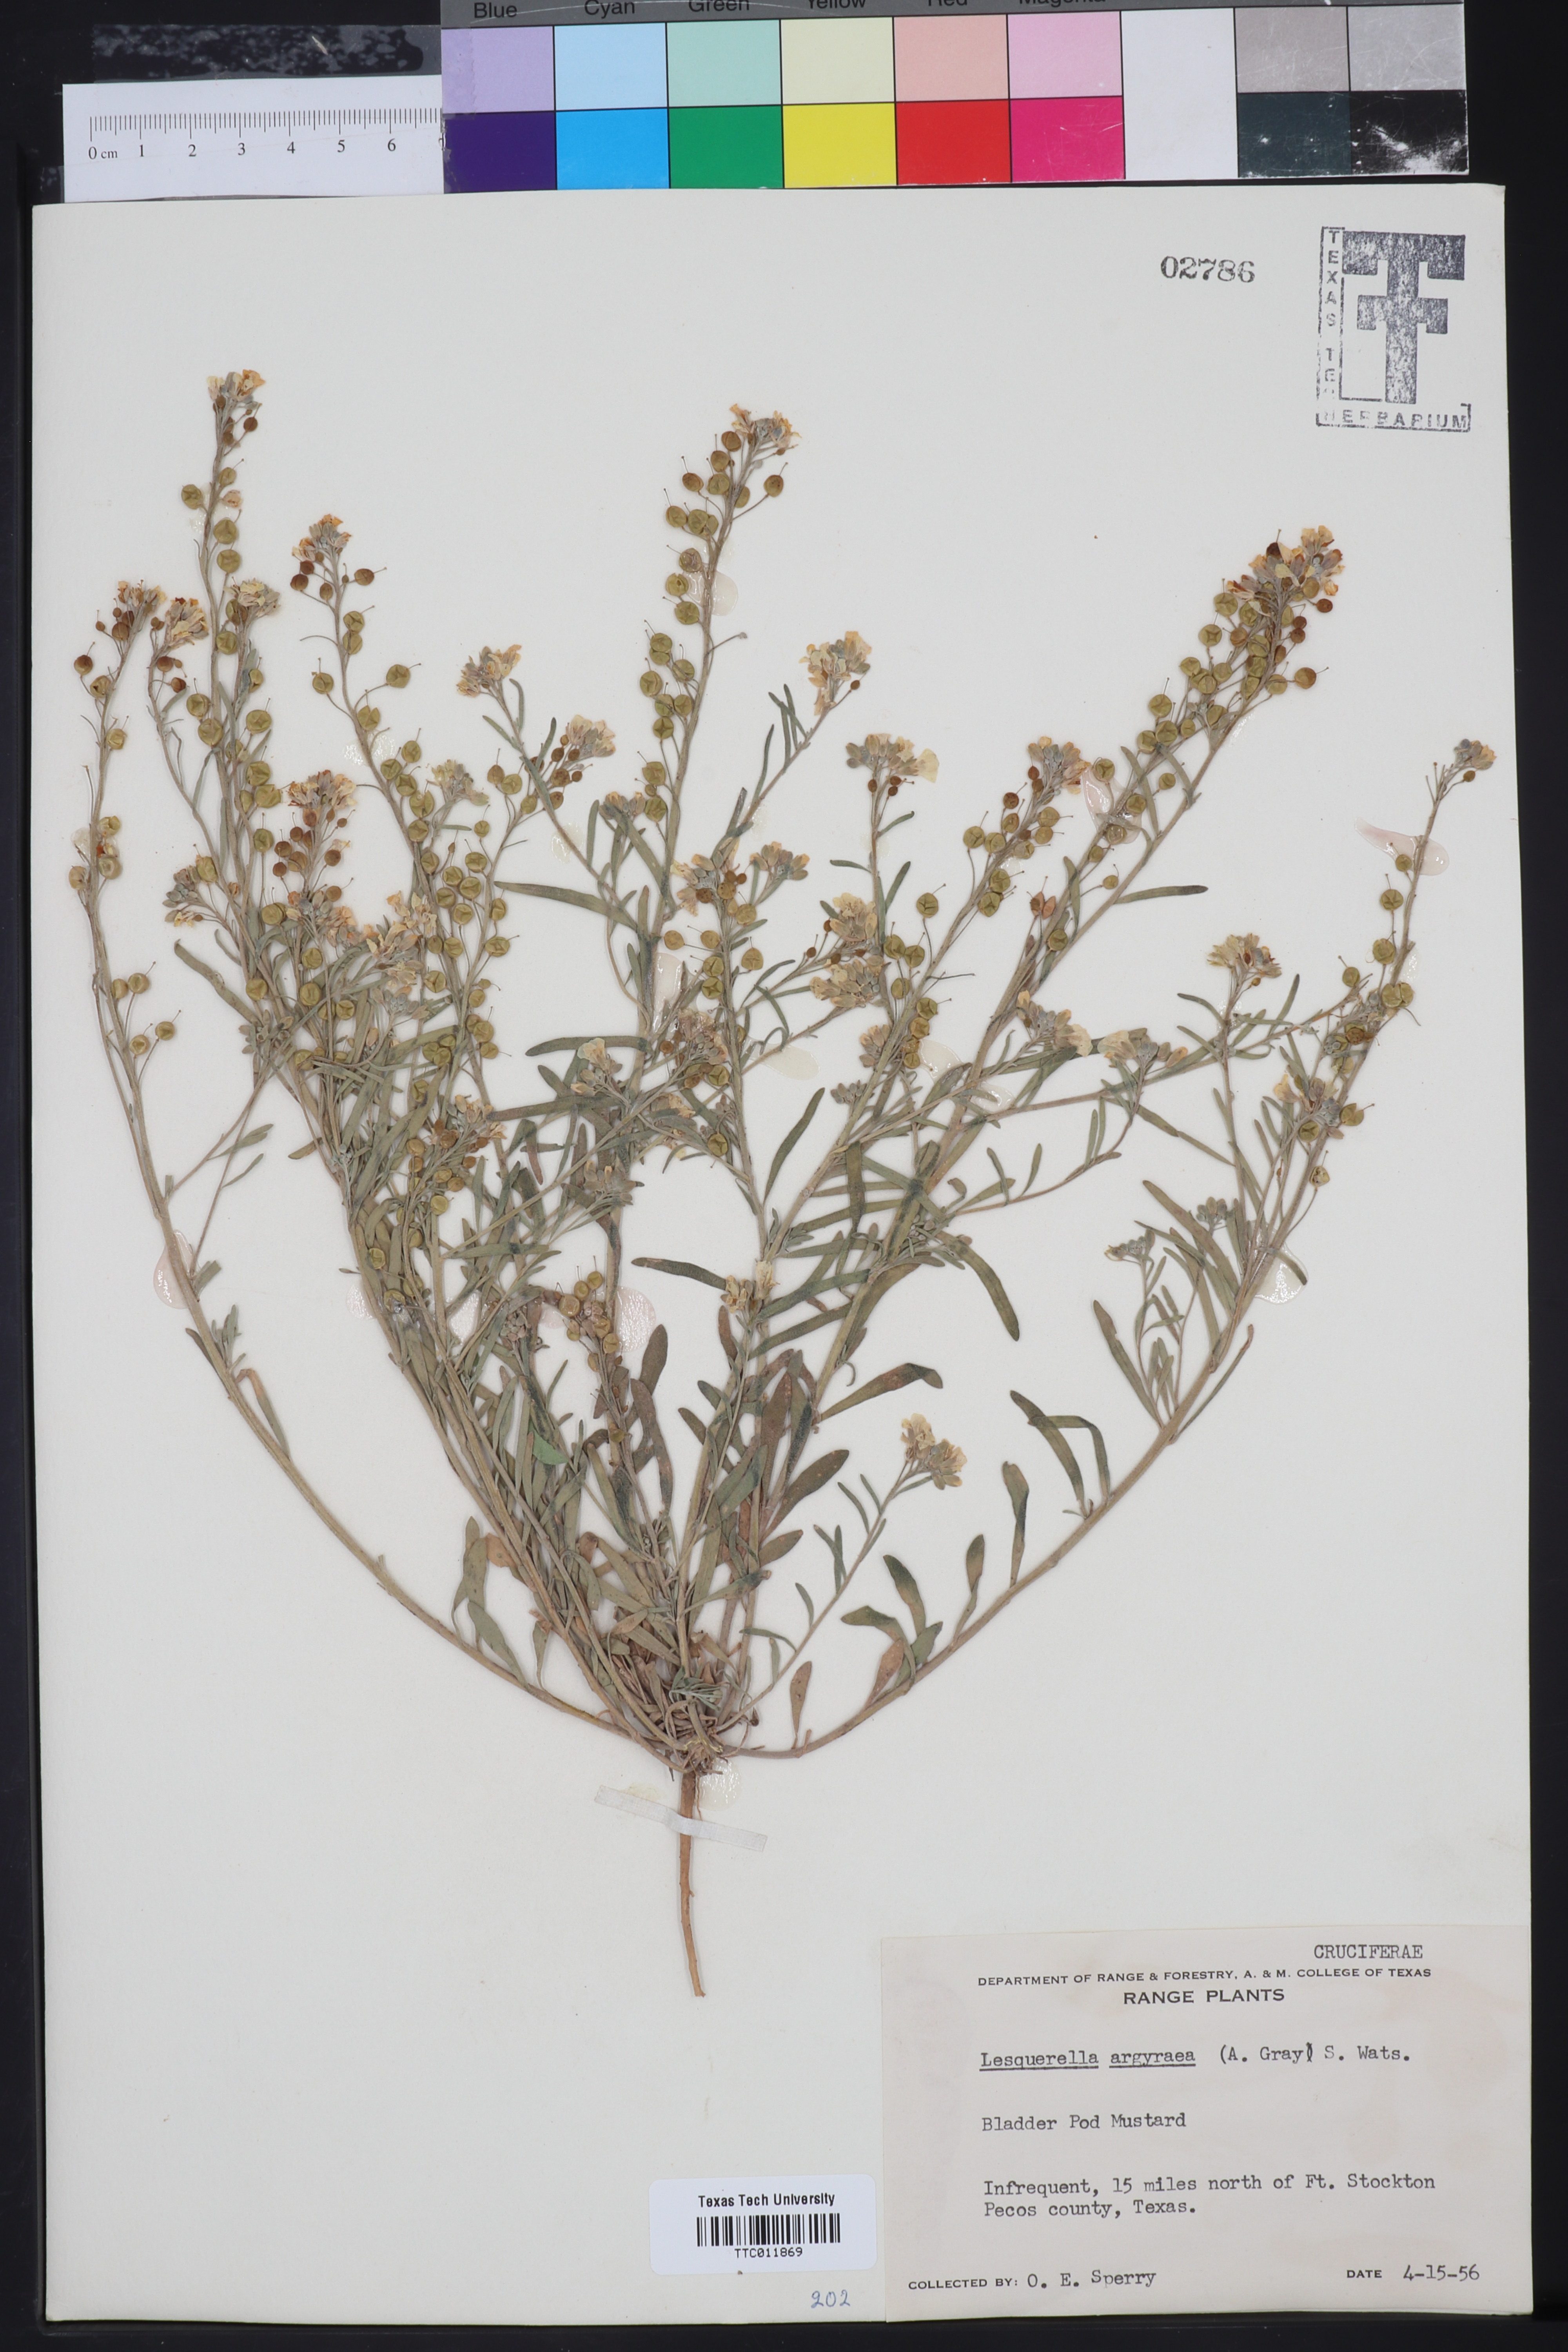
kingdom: Plantae
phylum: Tracheophyta
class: Magnoliopsida
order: Brassicales
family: Brassicaceae
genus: Physaria
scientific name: Physaria argyraea
